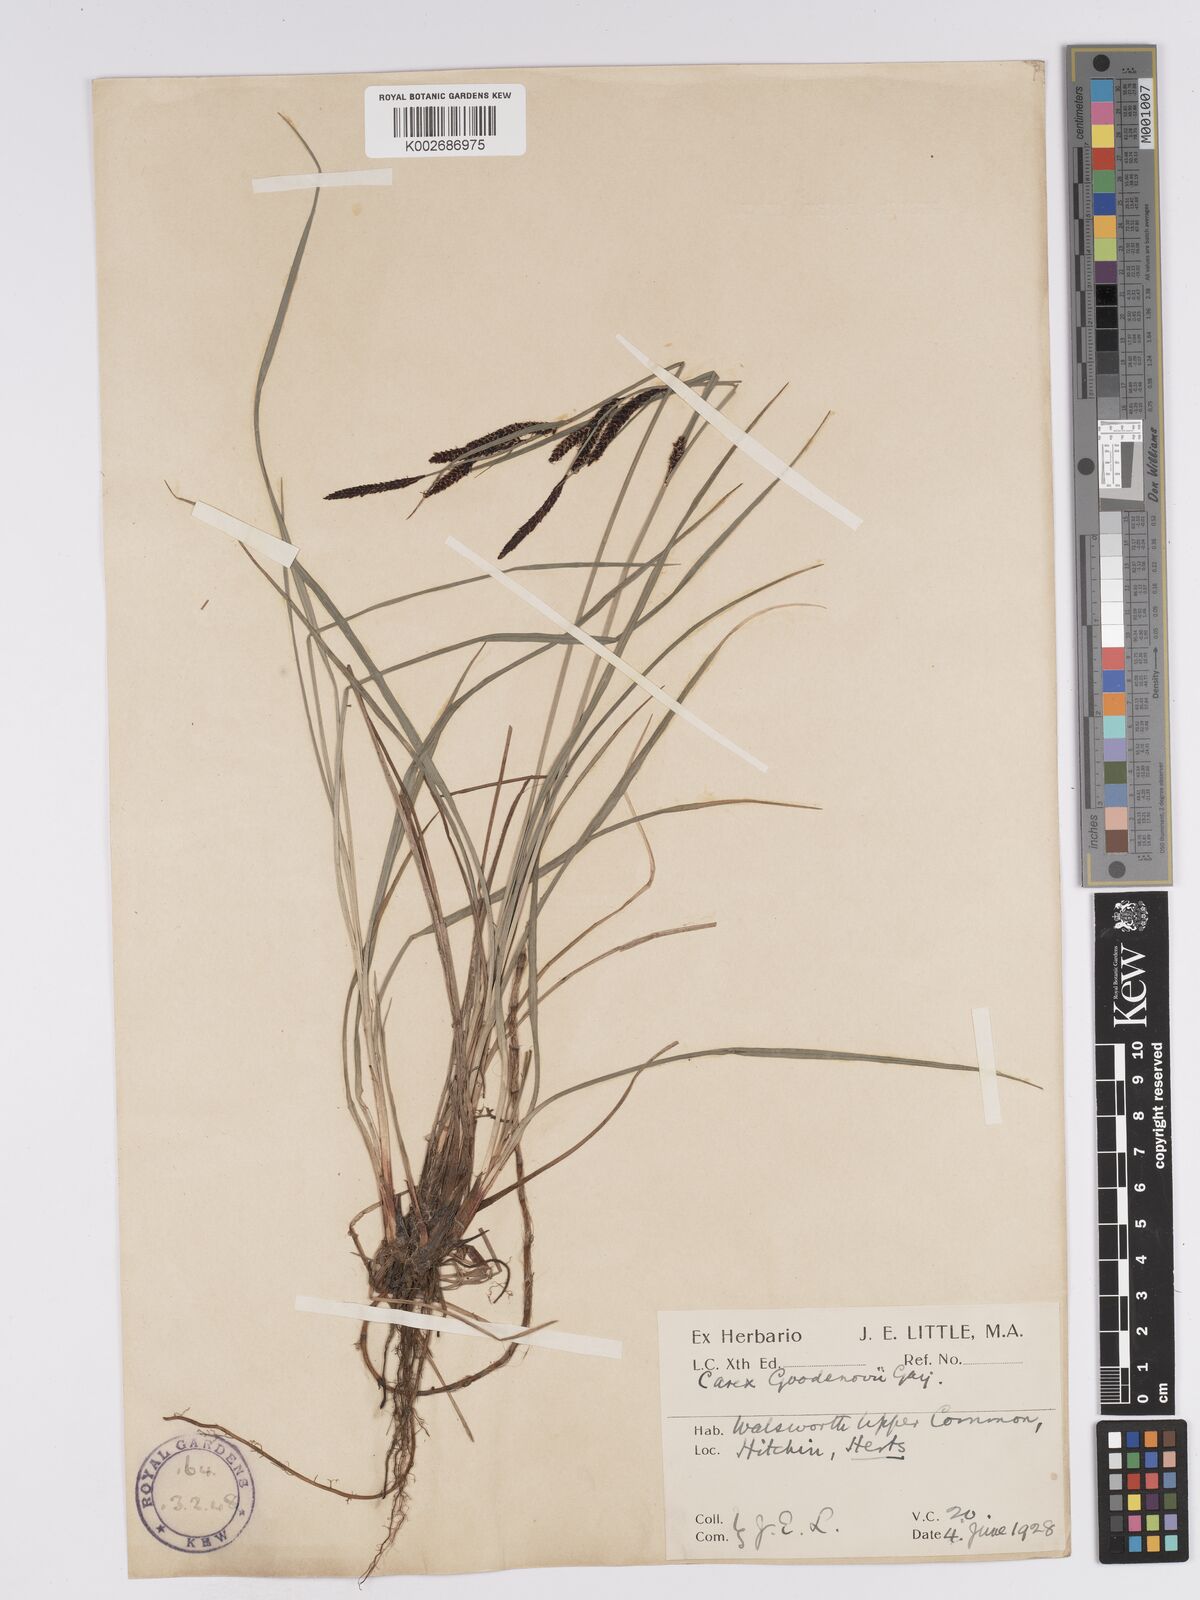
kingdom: Plantae
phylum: Tracheophyta
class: Liliopsida
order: Poales
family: Cyperaceae
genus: Carex
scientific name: Carex nigra
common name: Common sedge
